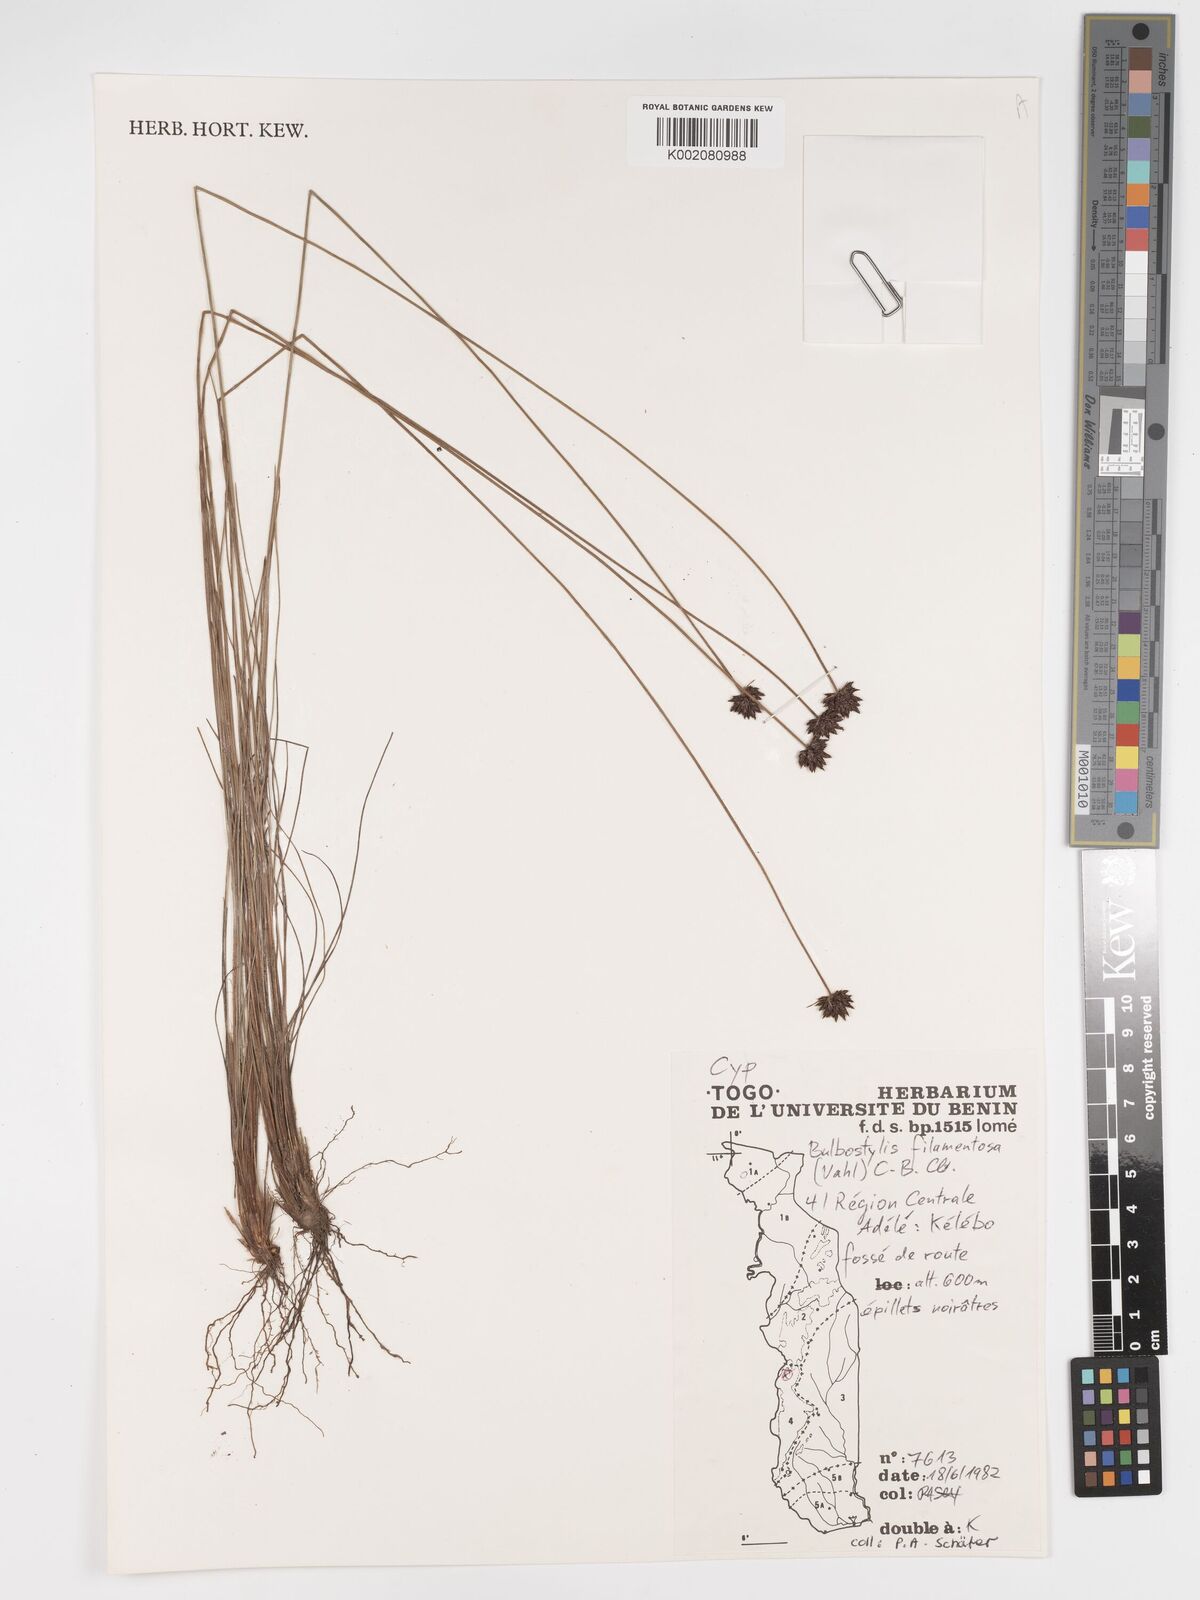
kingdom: Plantae
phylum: Tracheophyta
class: Liliopsida
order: Poales
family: Cyperaceae
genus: Bulbostylis
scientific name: Bulbostylis filamentosa
